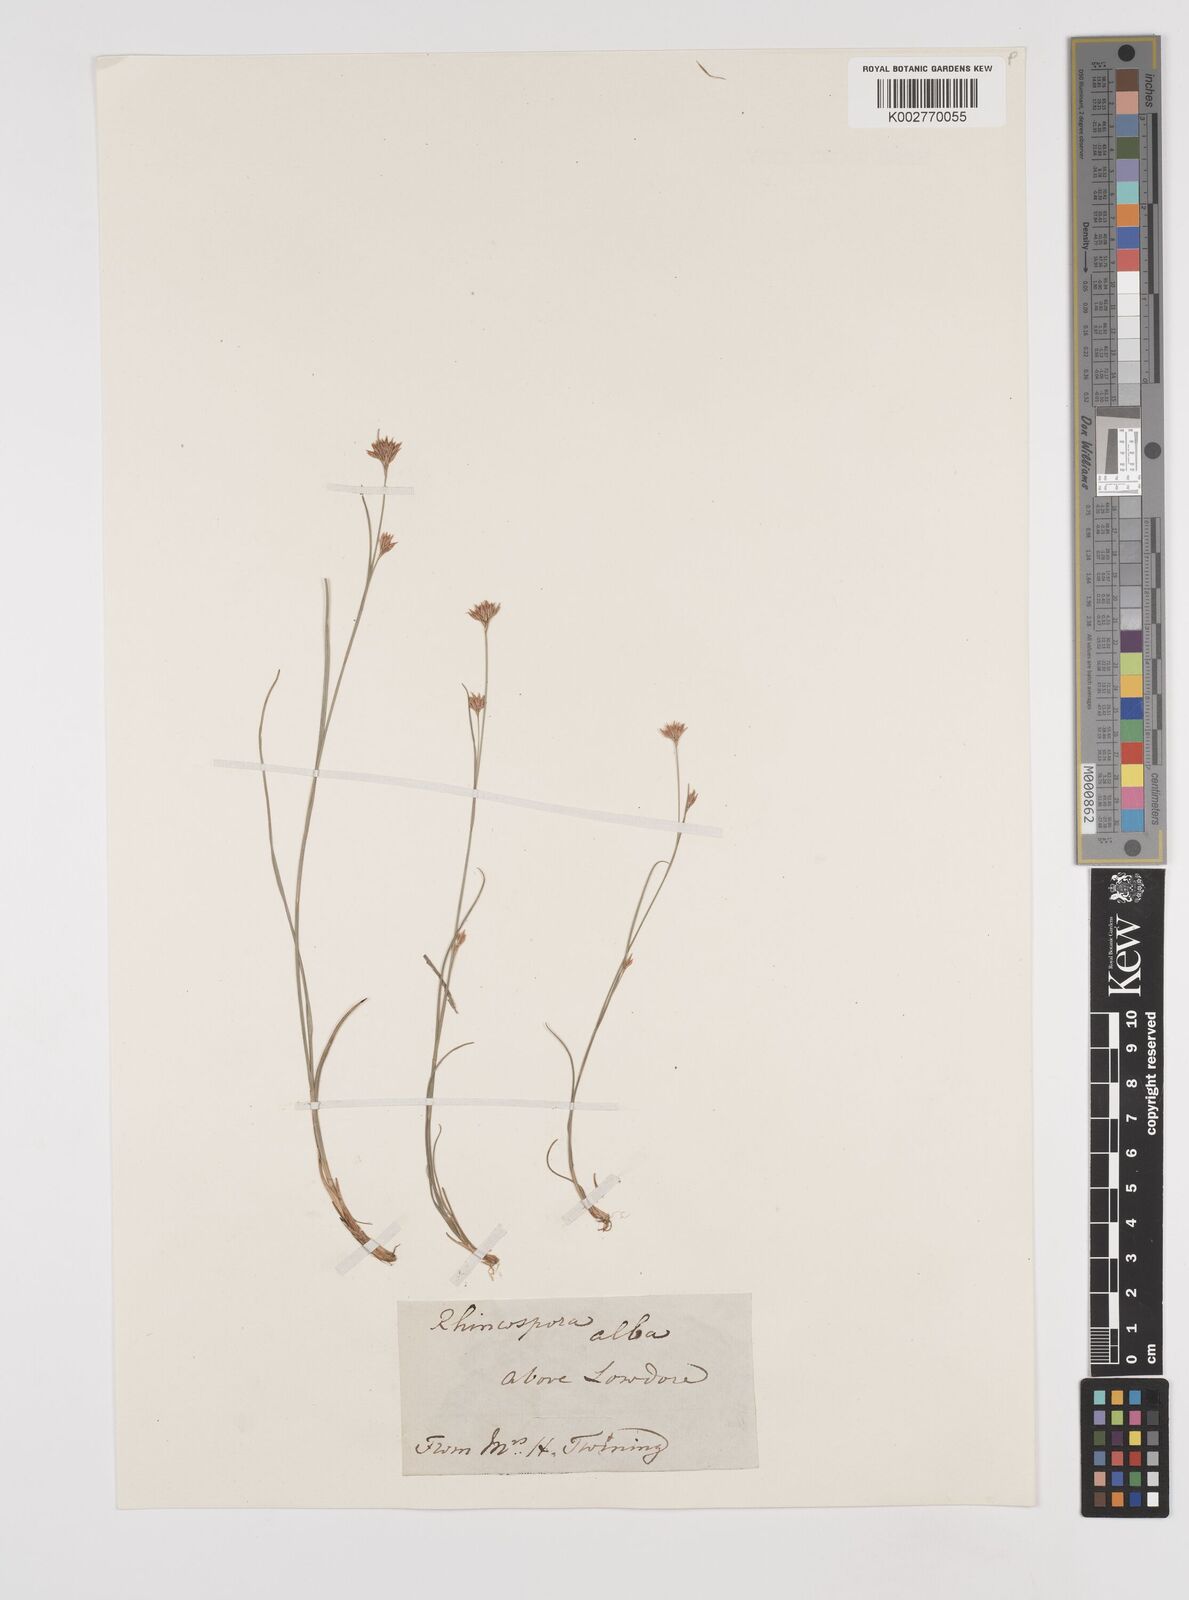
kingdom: Plantae
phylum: Tracheophyta
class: Liliopsida
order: Poales
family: Cyperaceae
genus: Rhynchospora
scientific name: Rhynchospora alba
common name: White beak-sedge
